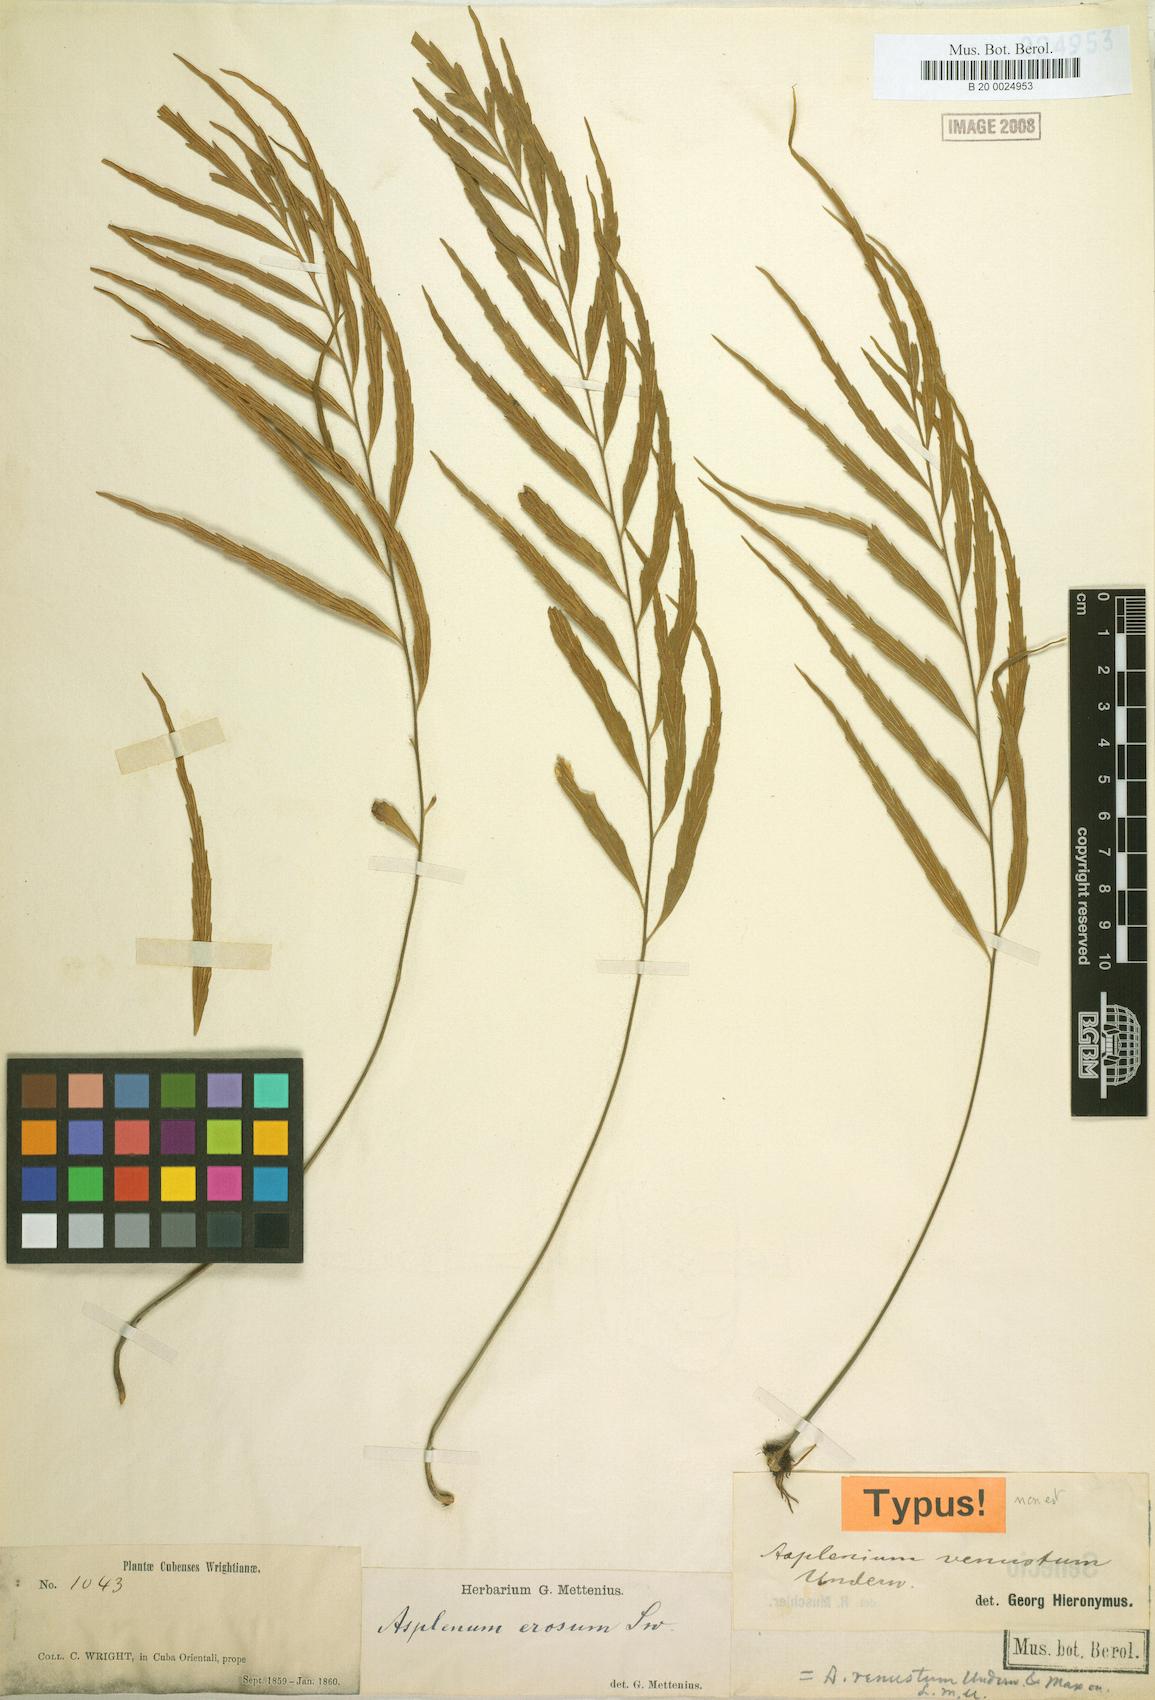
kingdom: Plantae
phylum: Tracheophyta
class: Polypodiopsida
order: Polypodiales
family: Aspleniaceae
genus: Asplenium
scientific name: Asplenium venustum
